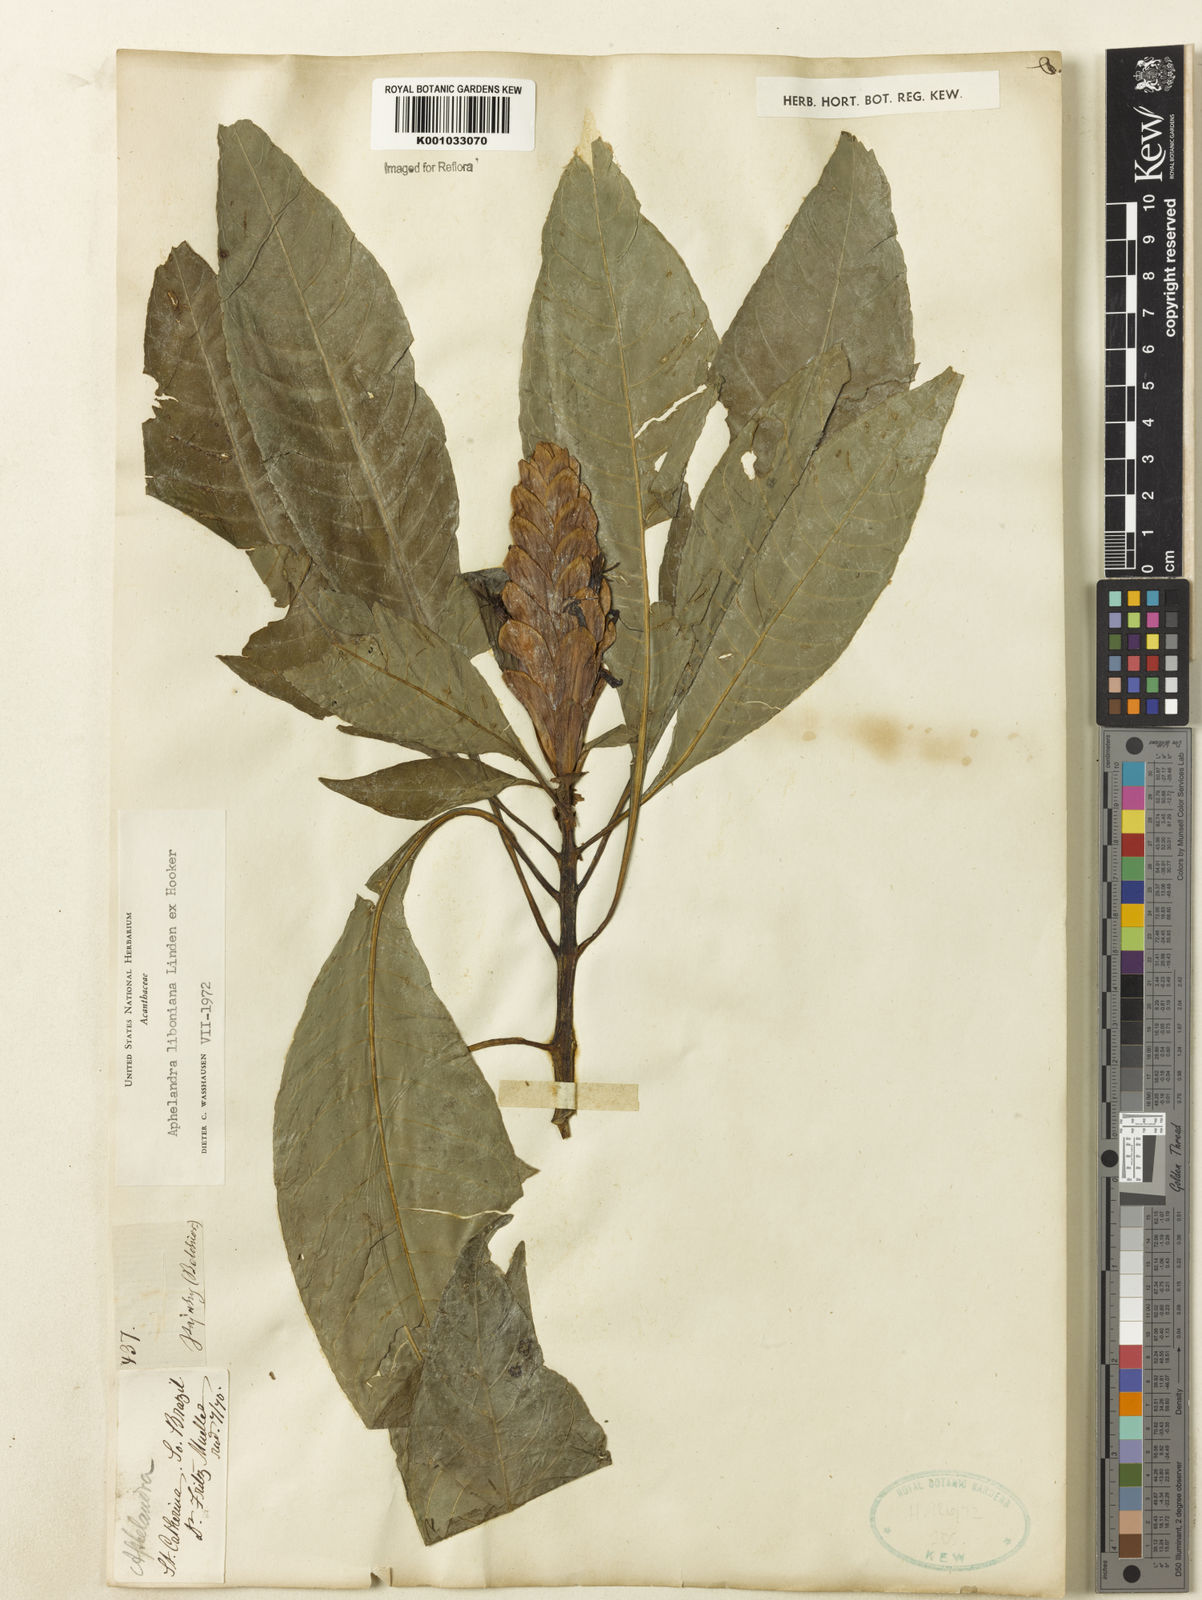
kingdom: Plantae
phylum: Tracheophyta
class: Magnoliopsida
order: Lamiales
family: Acanthaceae
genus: Aphelandra
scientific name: Aphelandra liboniana
